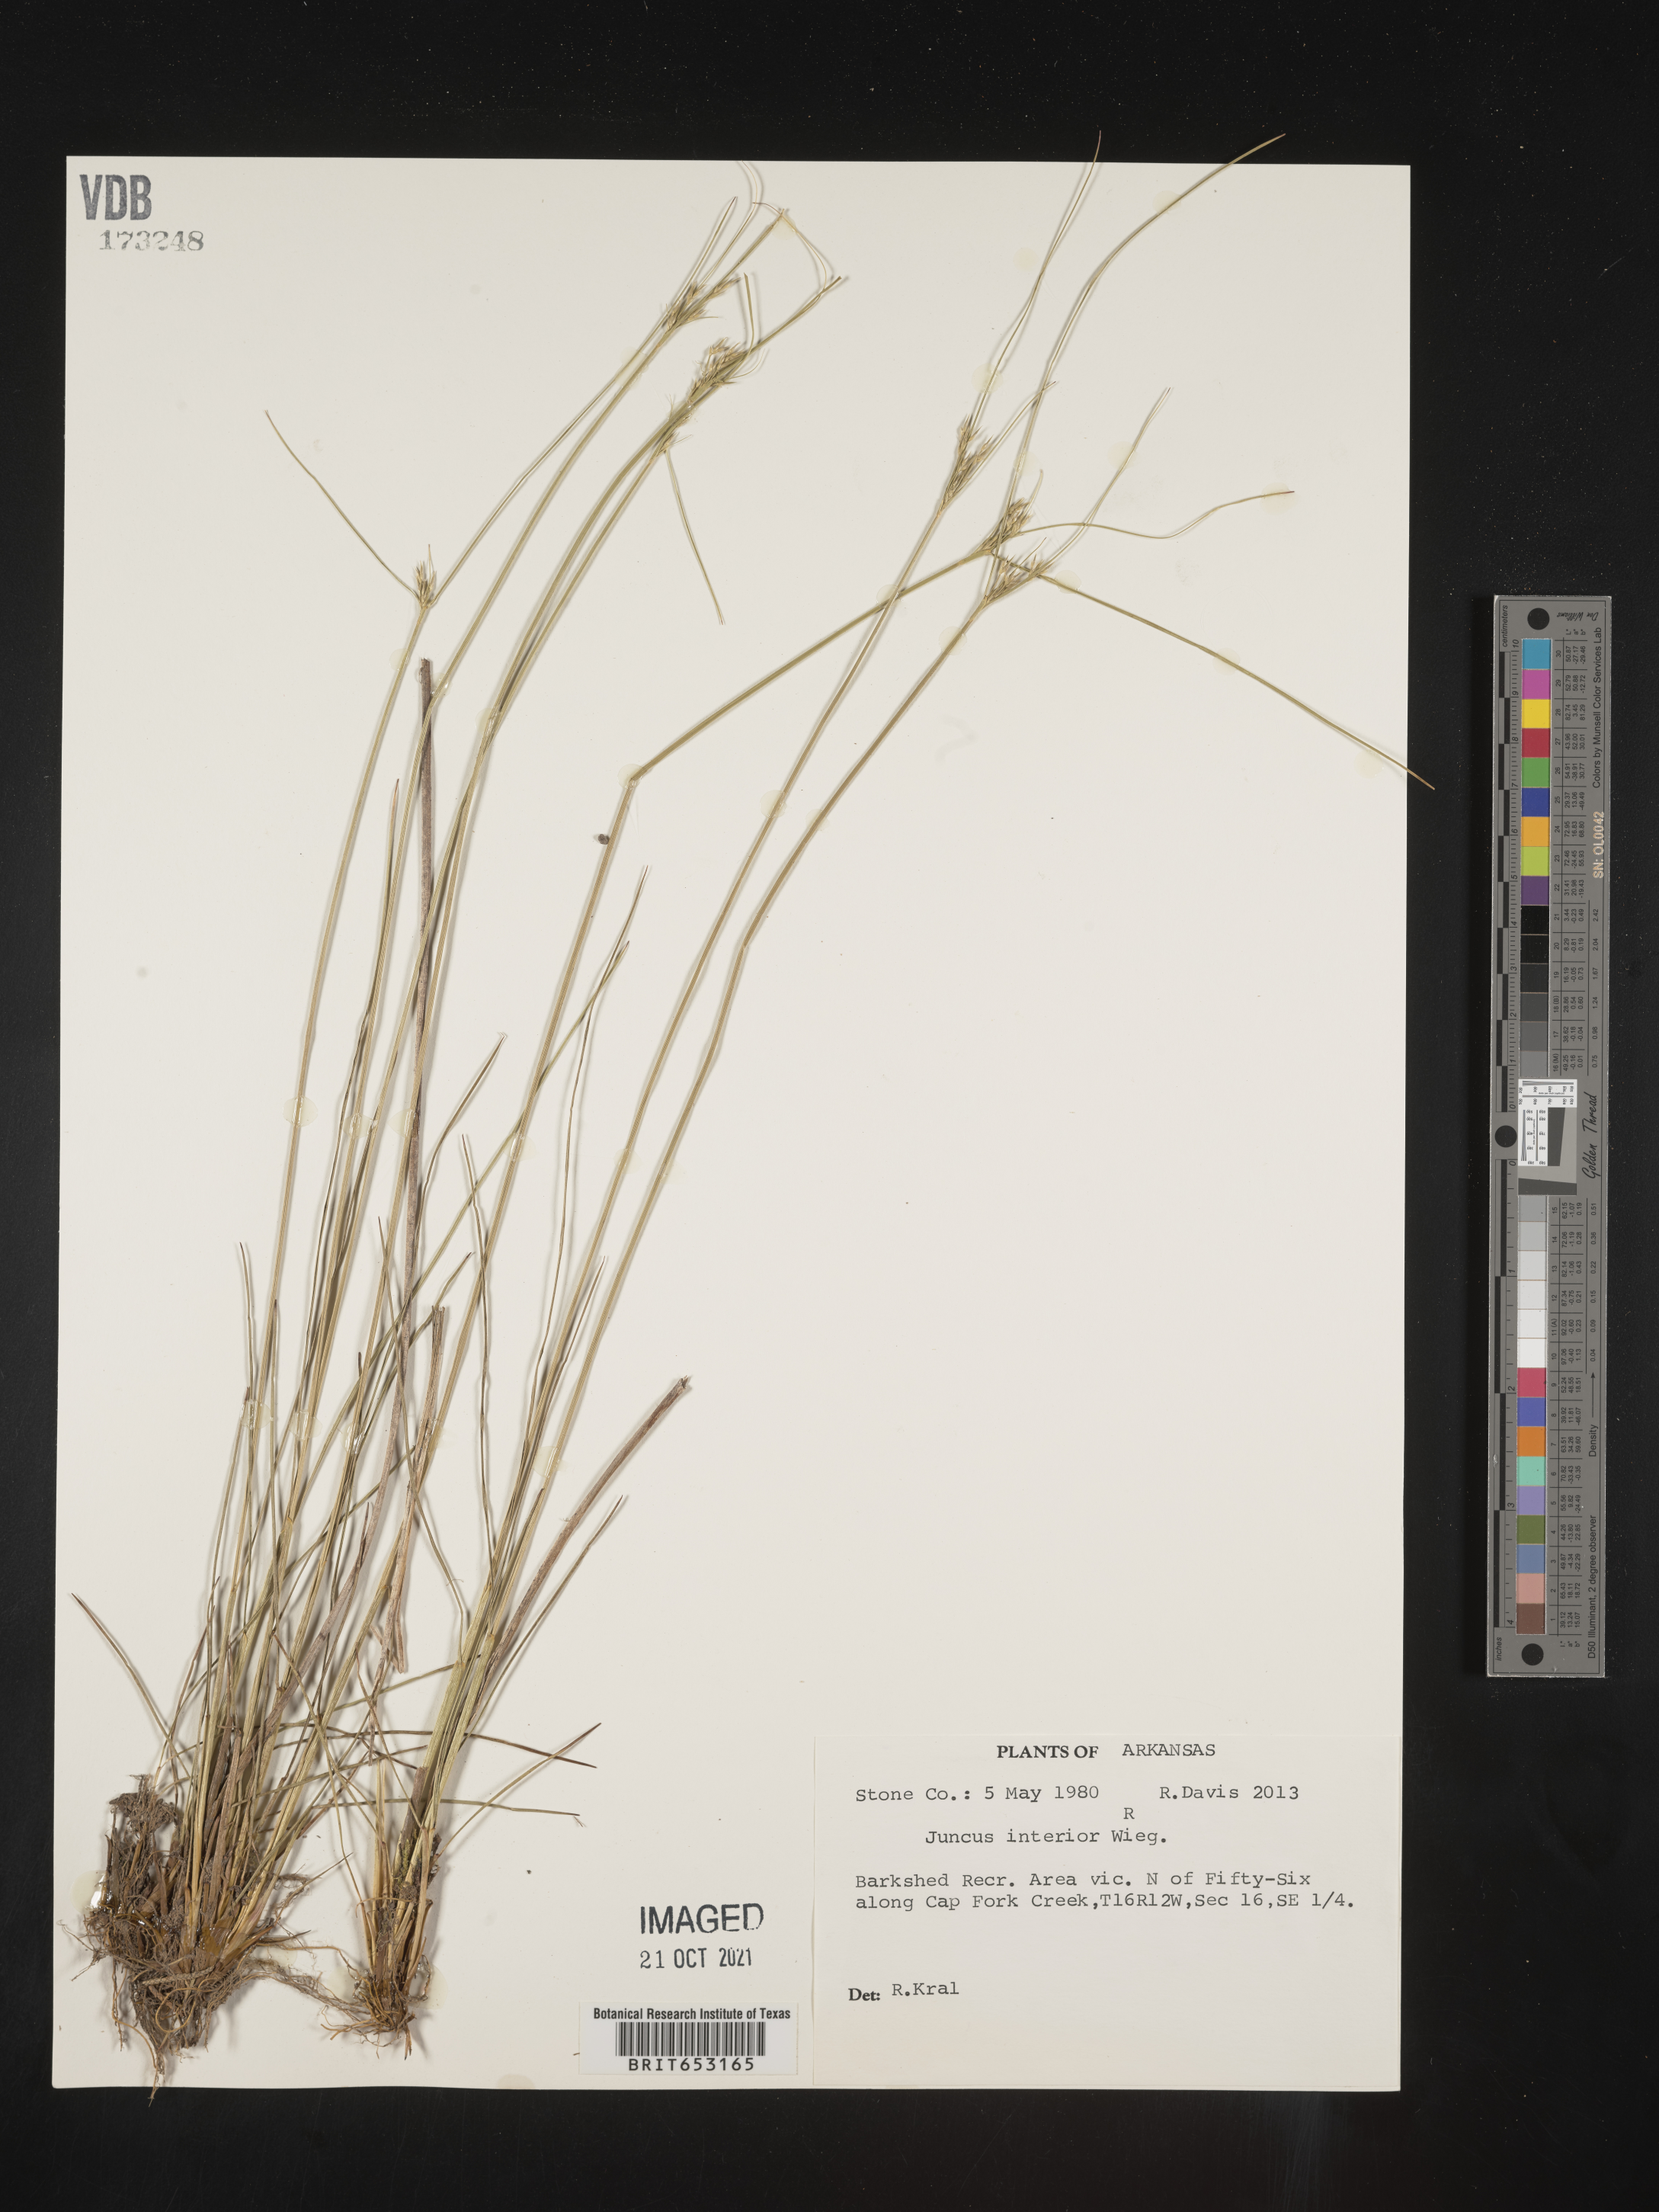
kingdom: Plantae
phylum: Tracheophyta
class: Liliopsida
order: Poales
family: Juncaceae
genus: Juncus
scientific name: Juncus interior
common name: Interior rush
